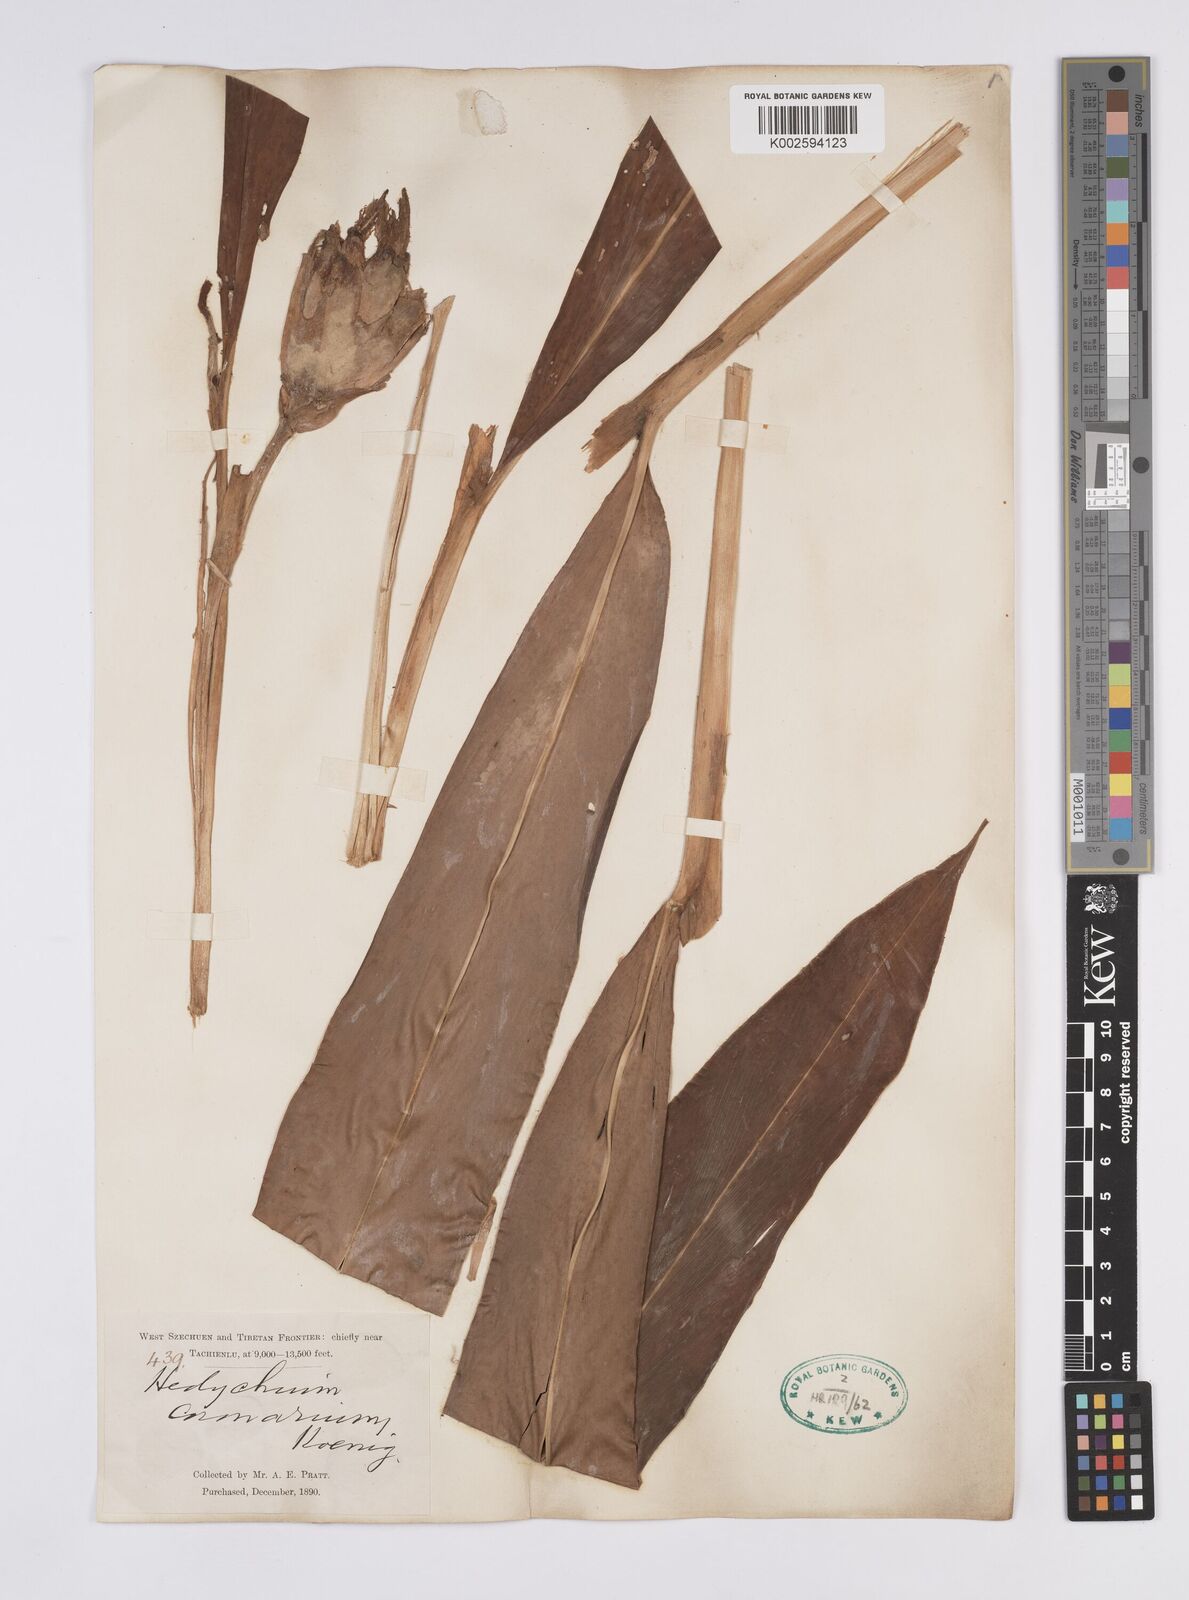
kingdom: Plantae
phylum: Tracheophyta
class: Liliopsida
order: Zingiberales
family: Zingiberaceae
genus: Hedychium
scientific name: Hedychium coronarium
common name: White garland-lily
